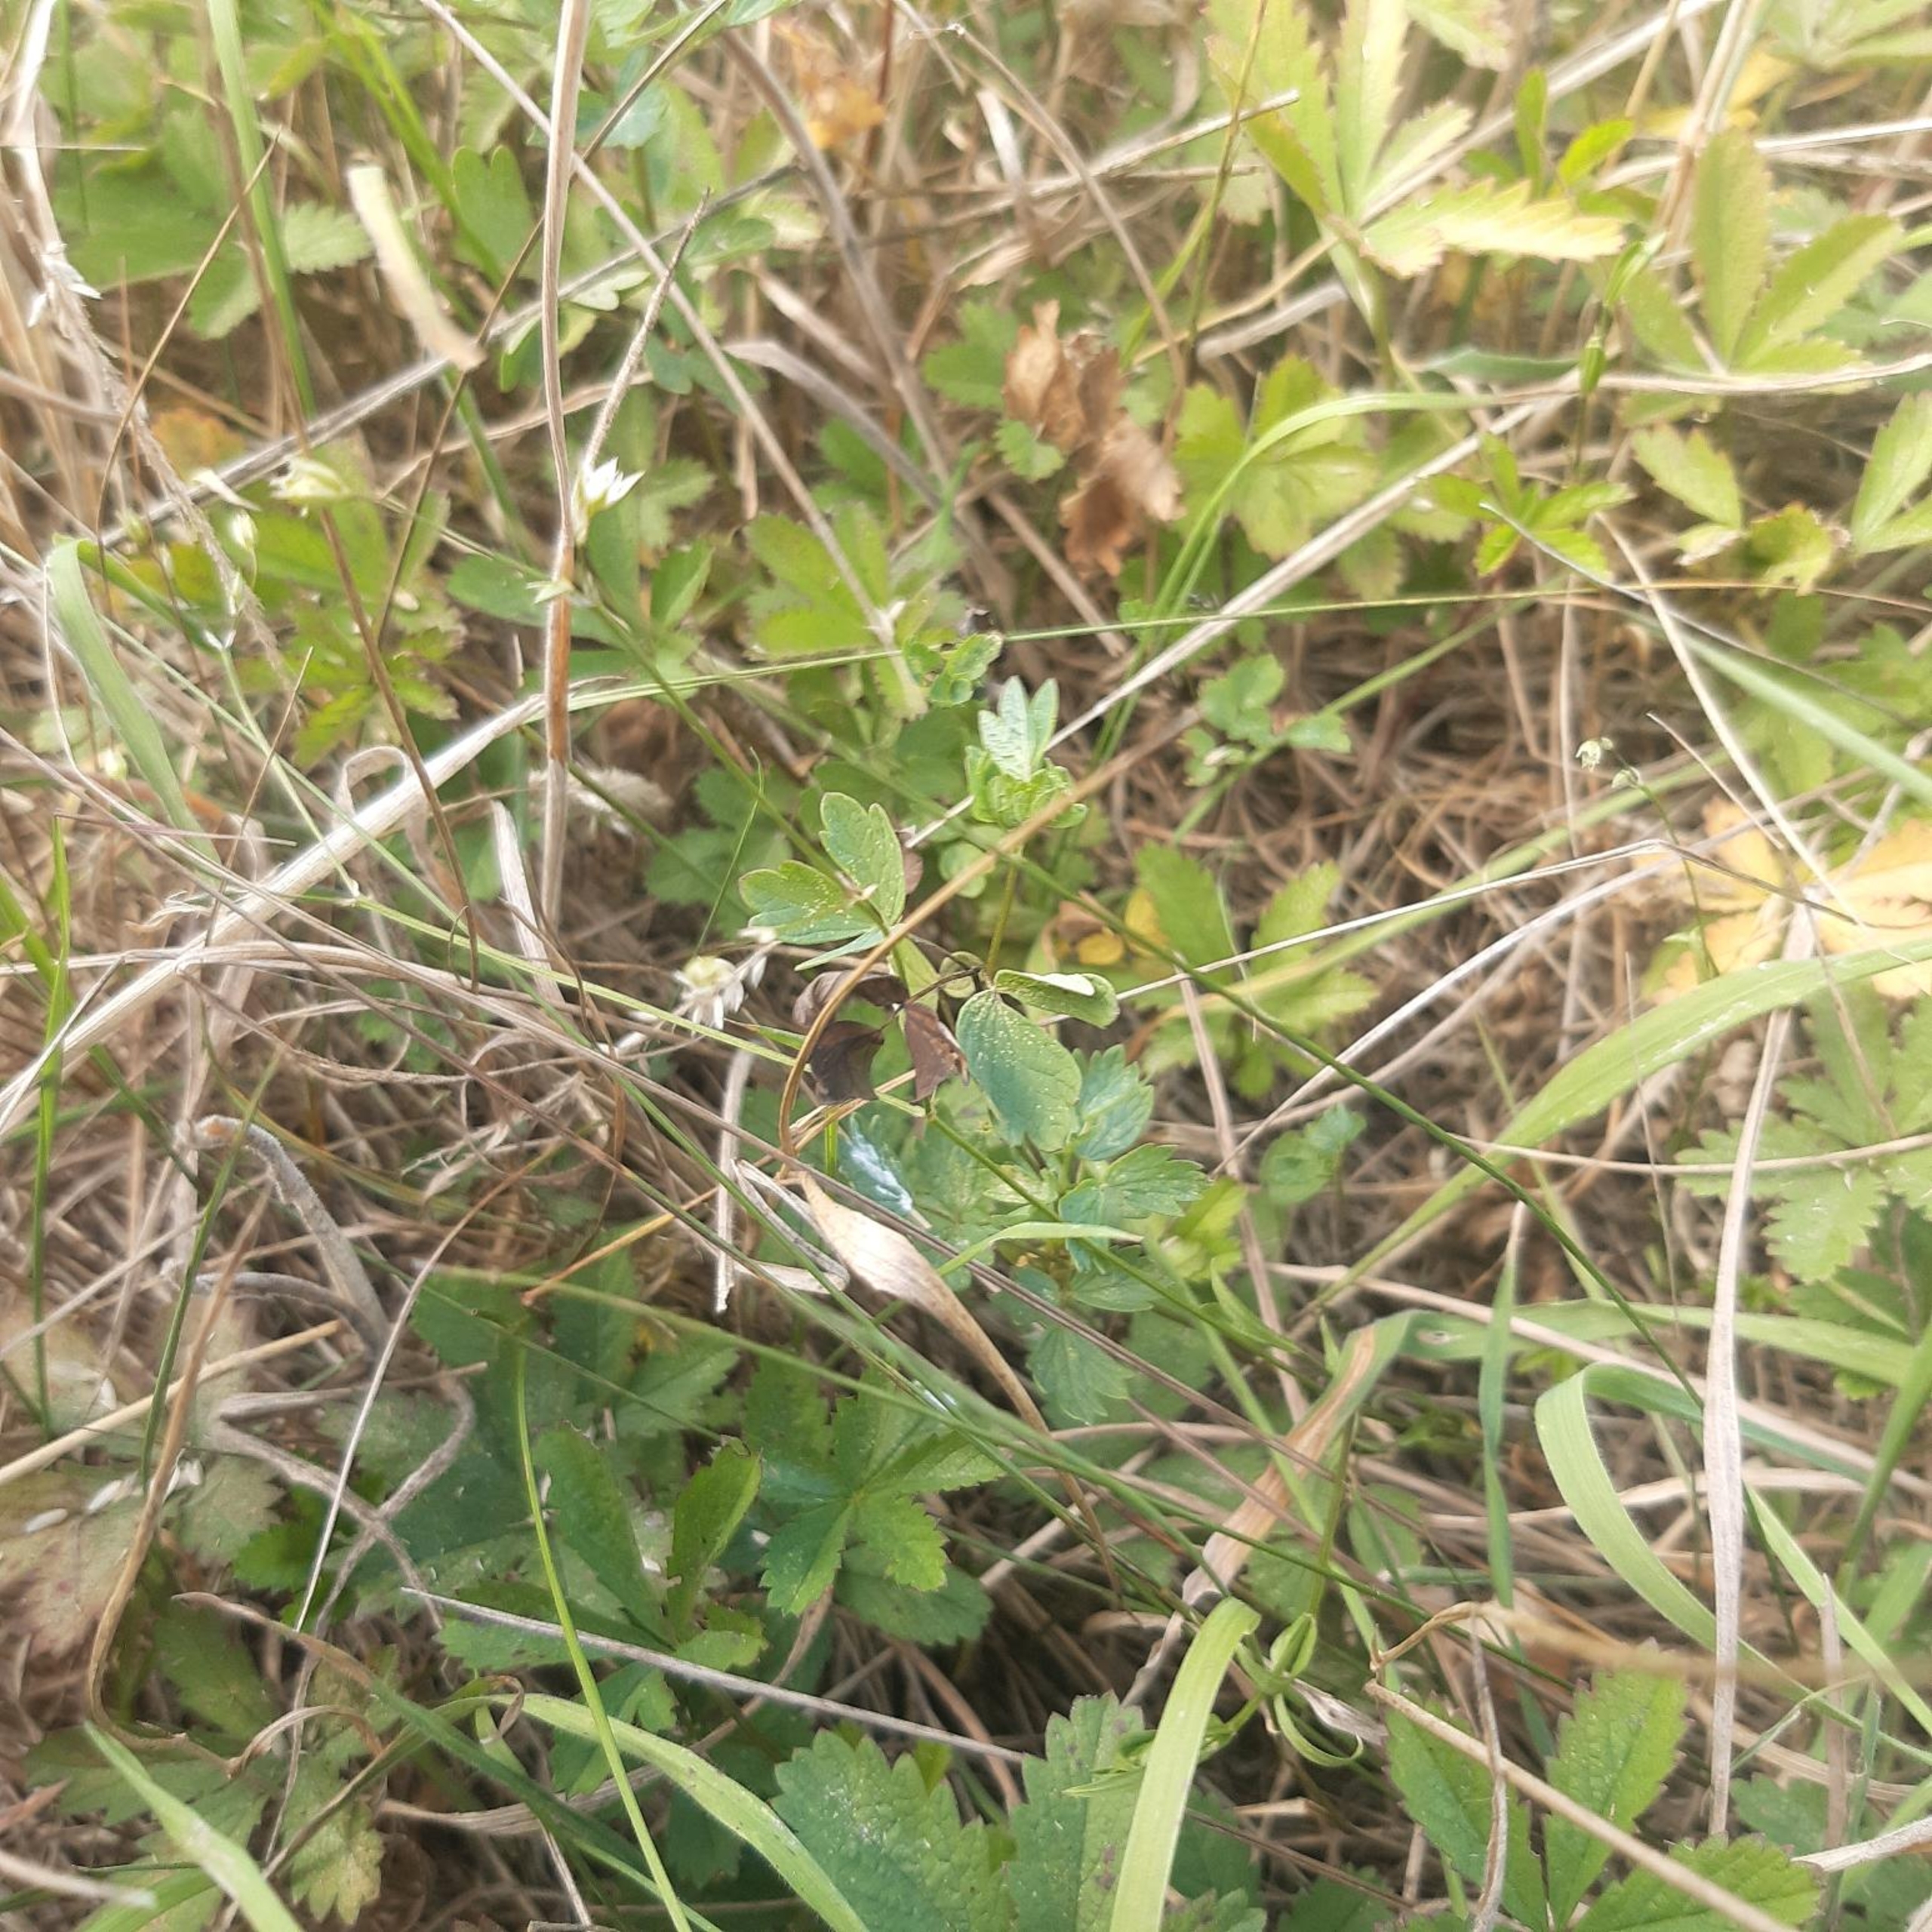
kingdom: Plantae
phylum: Tracheophyta
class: Magnoliopsida
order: Ranunculales
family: Ranunculaceae
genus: Thalictrum
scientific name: Thalictrum simplex
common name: Rank frøstjerne
